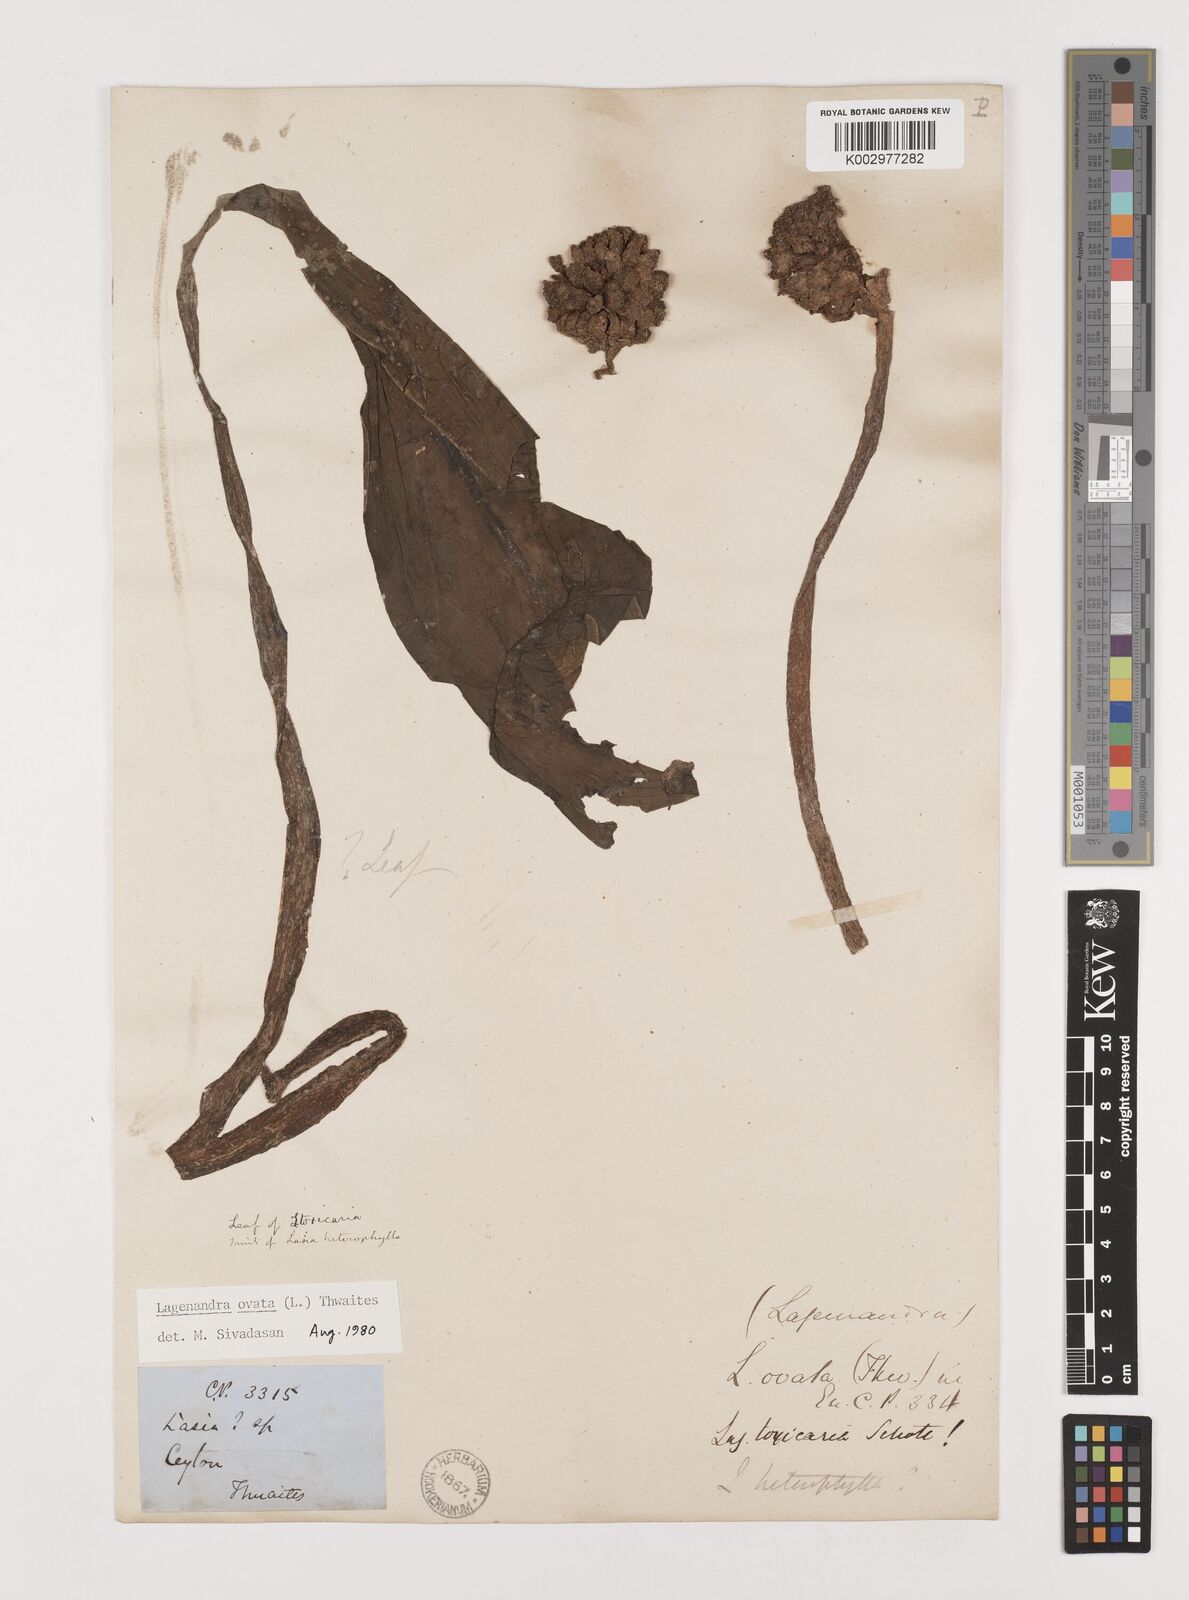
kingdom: Plantae
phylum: Tracheophyta
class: Liliopsida
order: Alismatales
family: Araceae
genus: Lagenandra
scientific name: Lagenandra ovata
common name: Malayan sword
